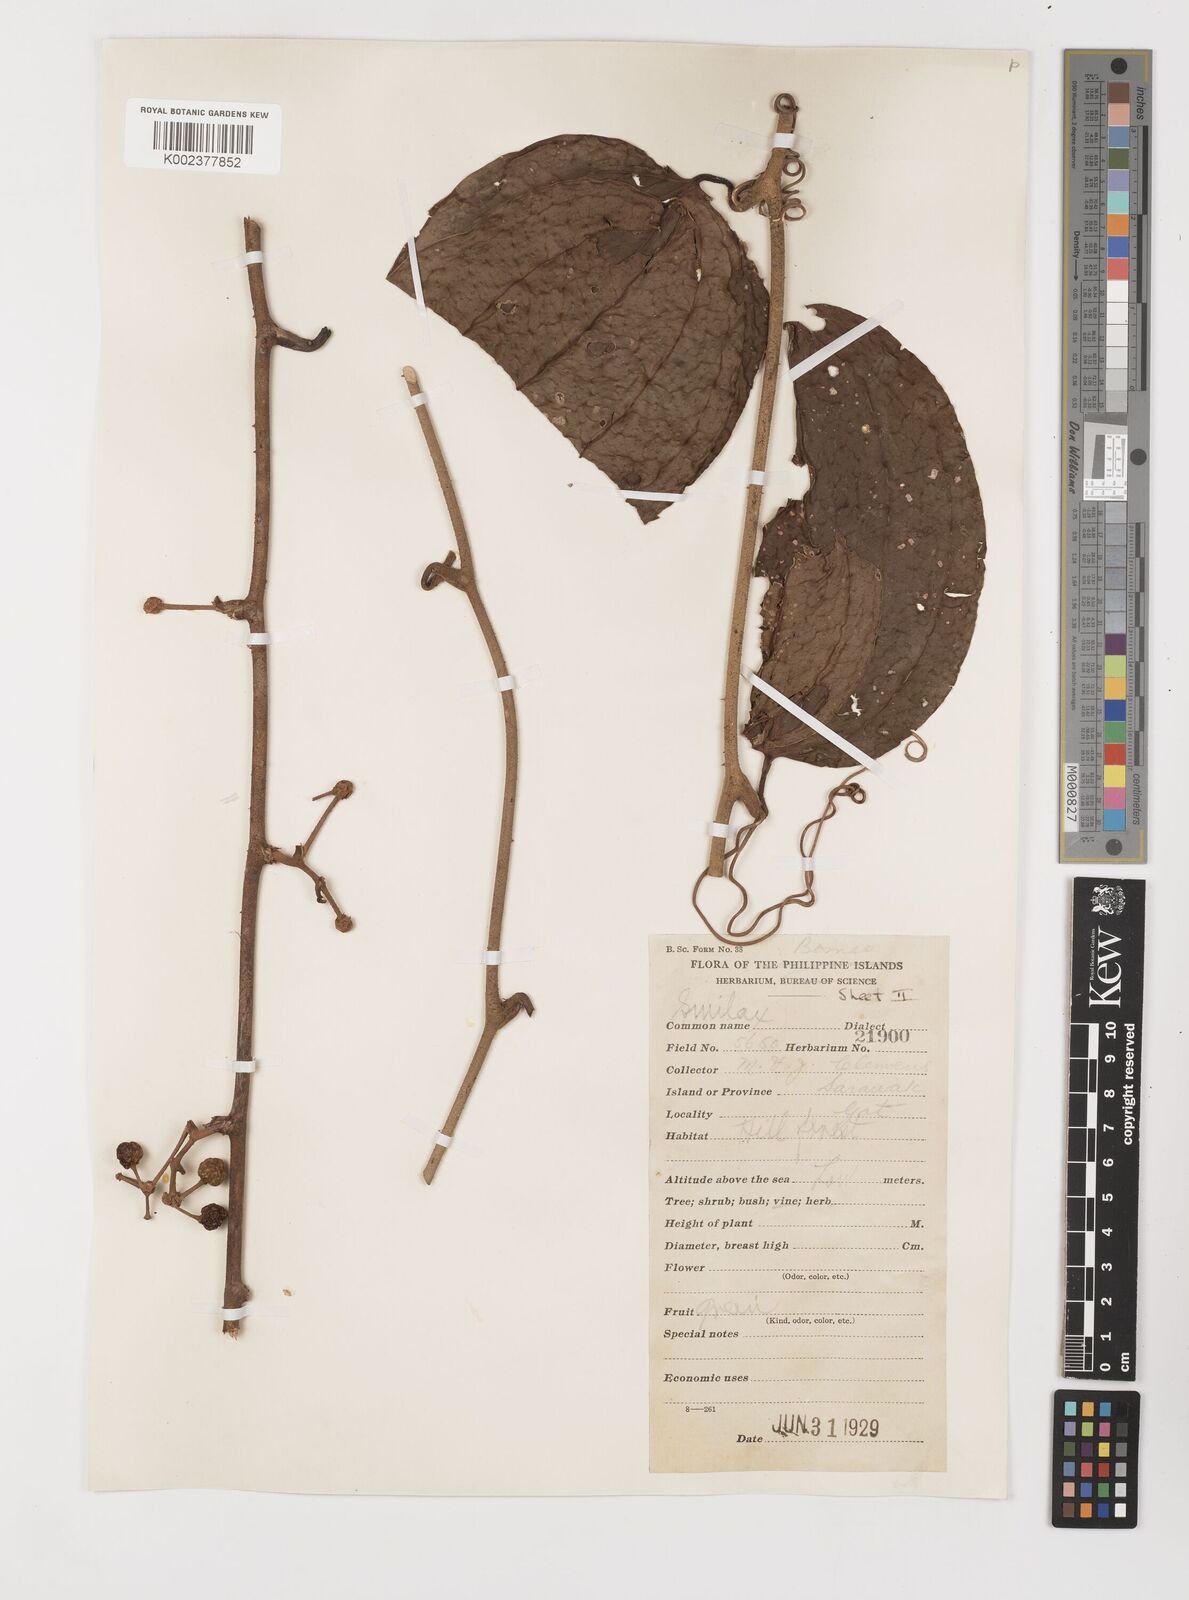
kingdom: Plantae
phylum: Tracheophyta
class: Liliopsida
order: Liliales
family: Smilacaceae
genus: Smilax
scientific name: Smilax
